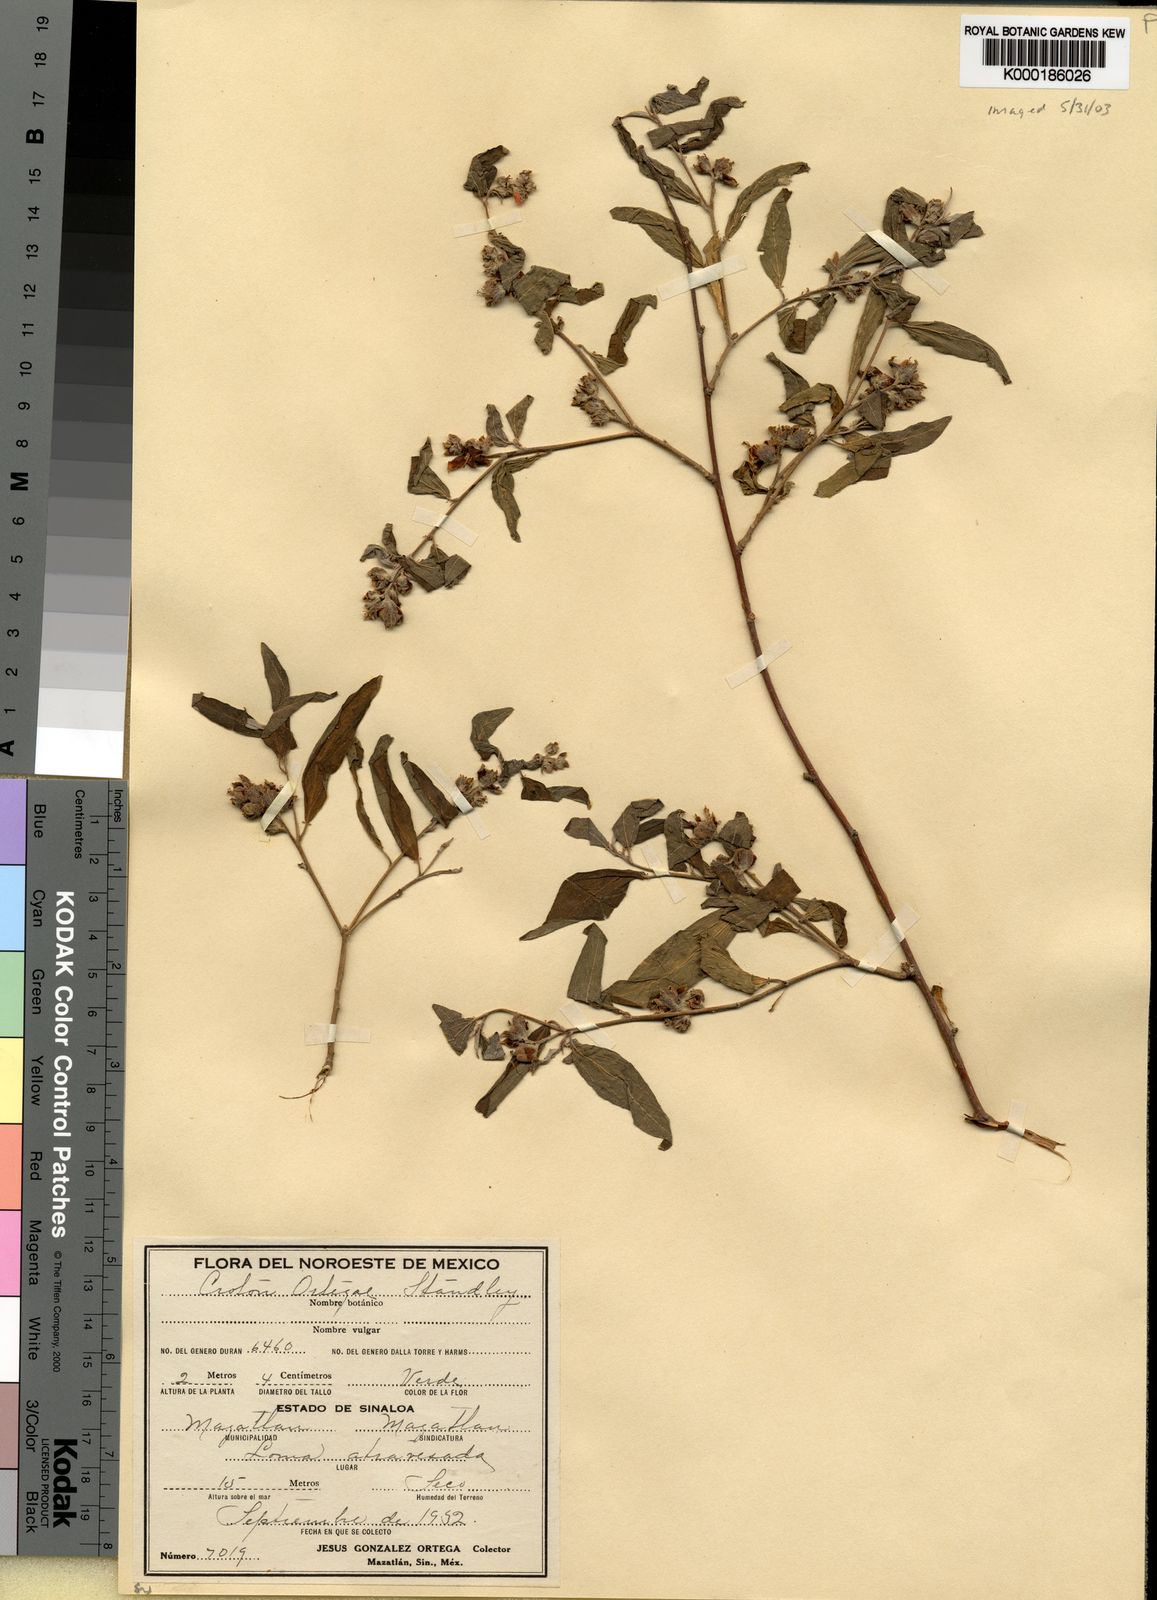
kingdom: Plantae
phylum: Tracheophyta
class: Magnoliopsida
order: Malpighiales
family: Euphorbiaceae
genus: Croton
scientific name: Croton ortegae
